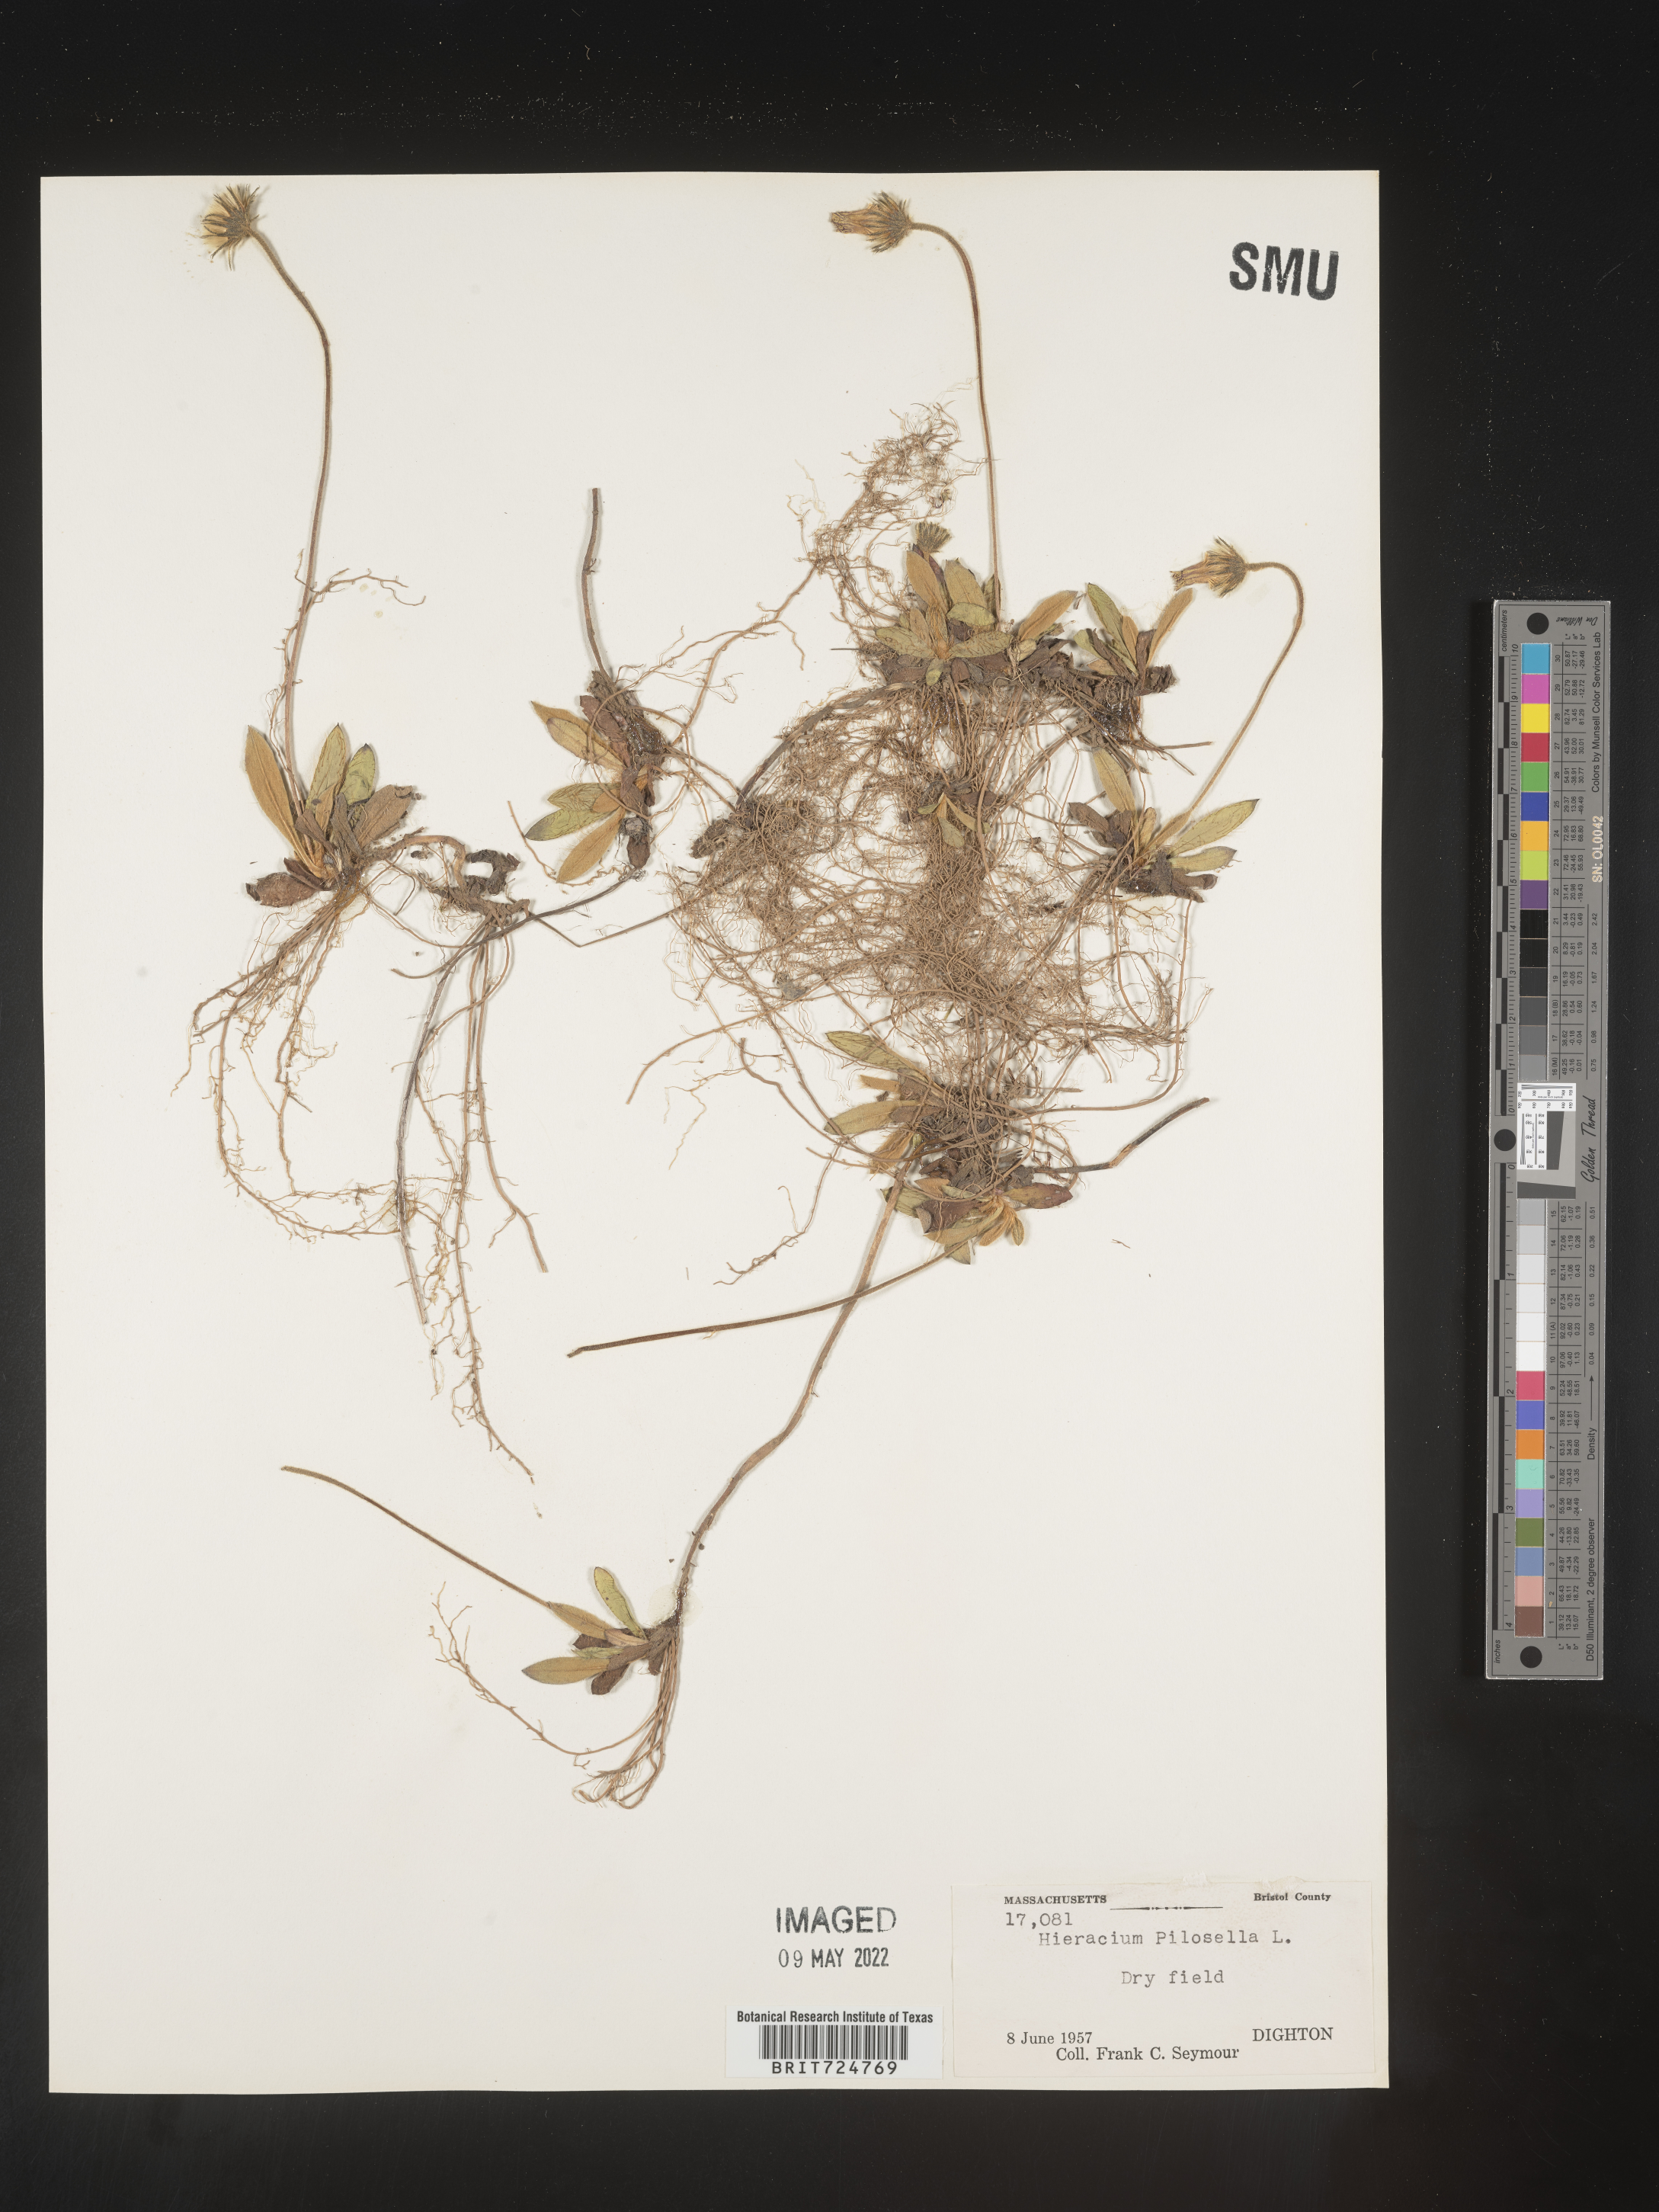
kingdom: Plantae
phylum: Tracheophyta
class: Magnoliopsida
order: Asterales
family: Asteraceae
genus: Hieracium
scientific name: Hieracium
